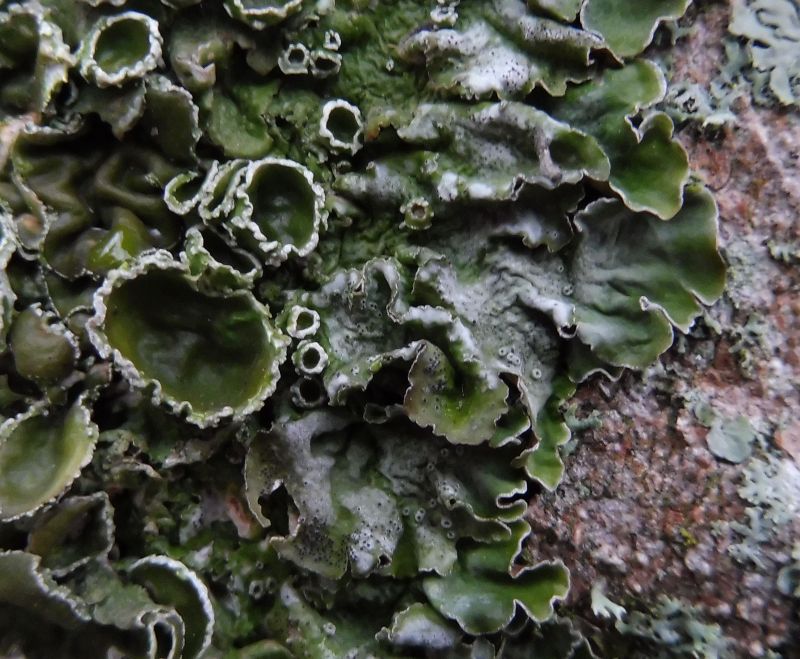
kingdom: Fungi
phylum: Ascomycota
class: Lecanoromycetes
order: Lecanorales
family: Parmeliaceae
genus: Pleurosticta
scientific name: Pleurosticta acetabulum
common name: stor skållav
